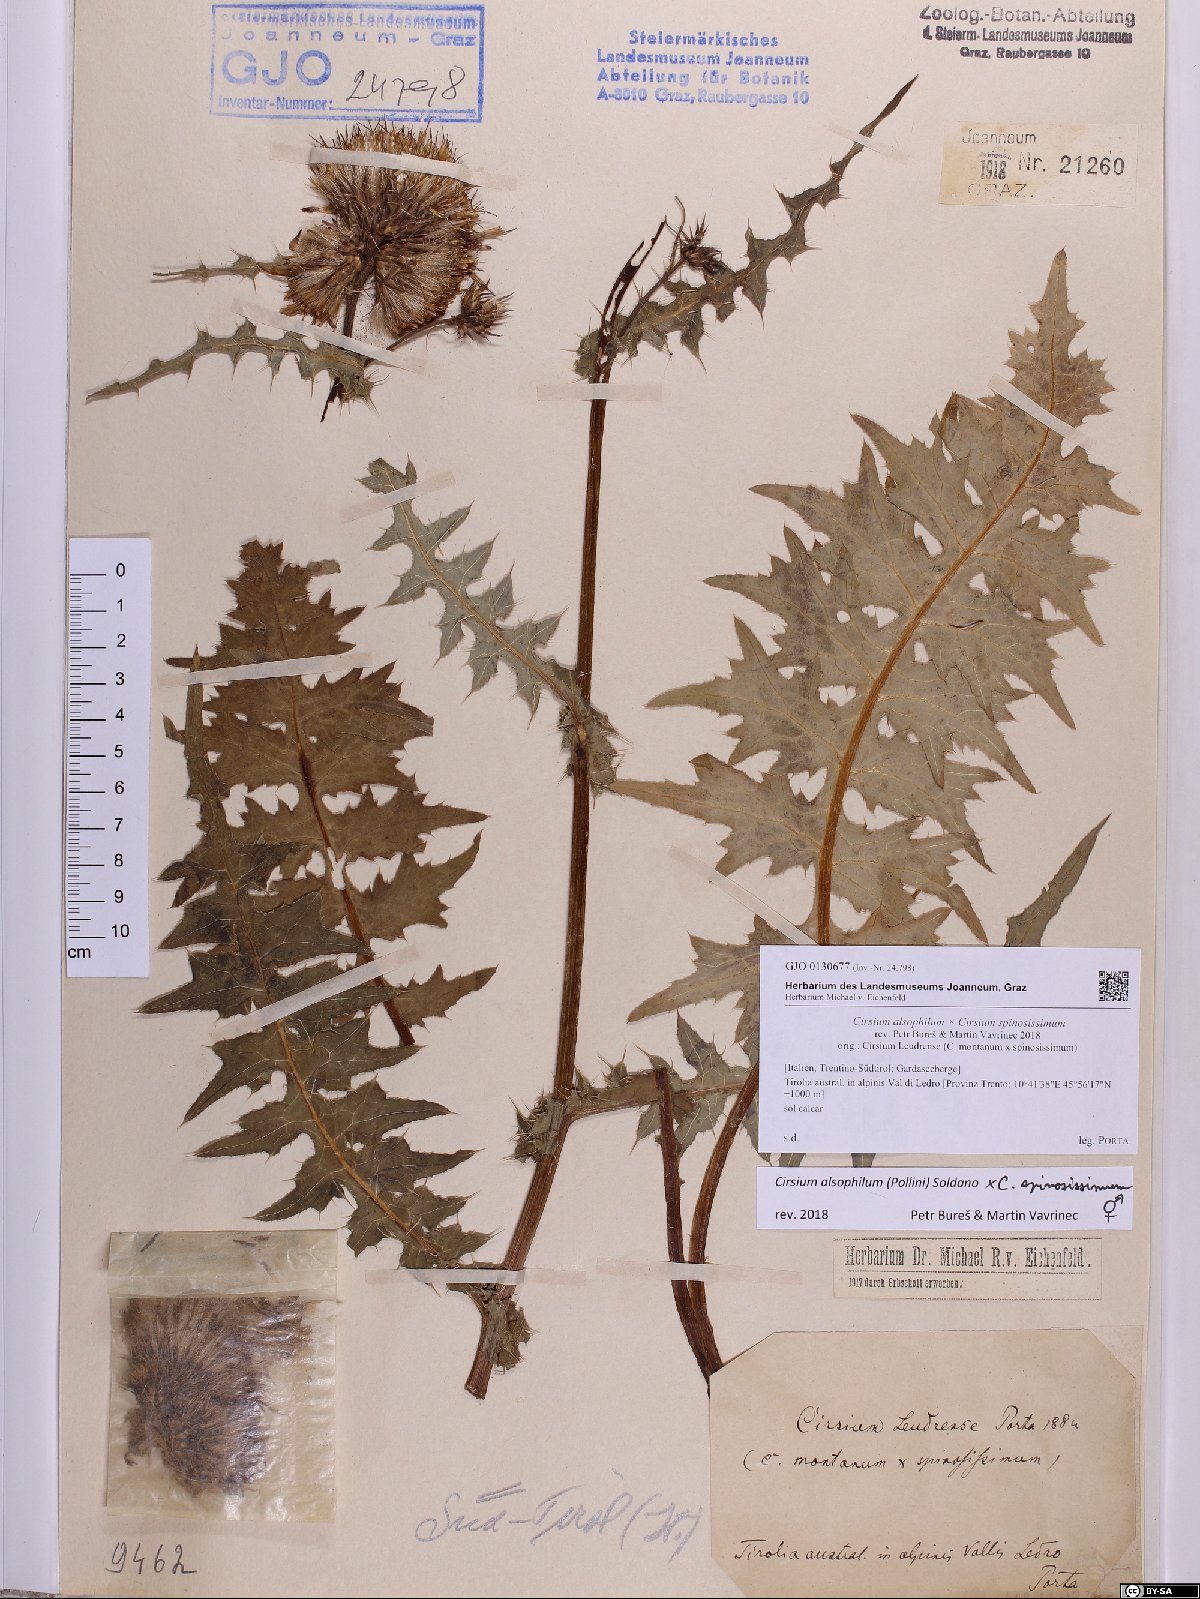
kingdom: Plantae
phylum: Tracheophyta
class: Magnoliopsida
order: Asterales
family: Asteraceae
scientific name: Asteraceae
